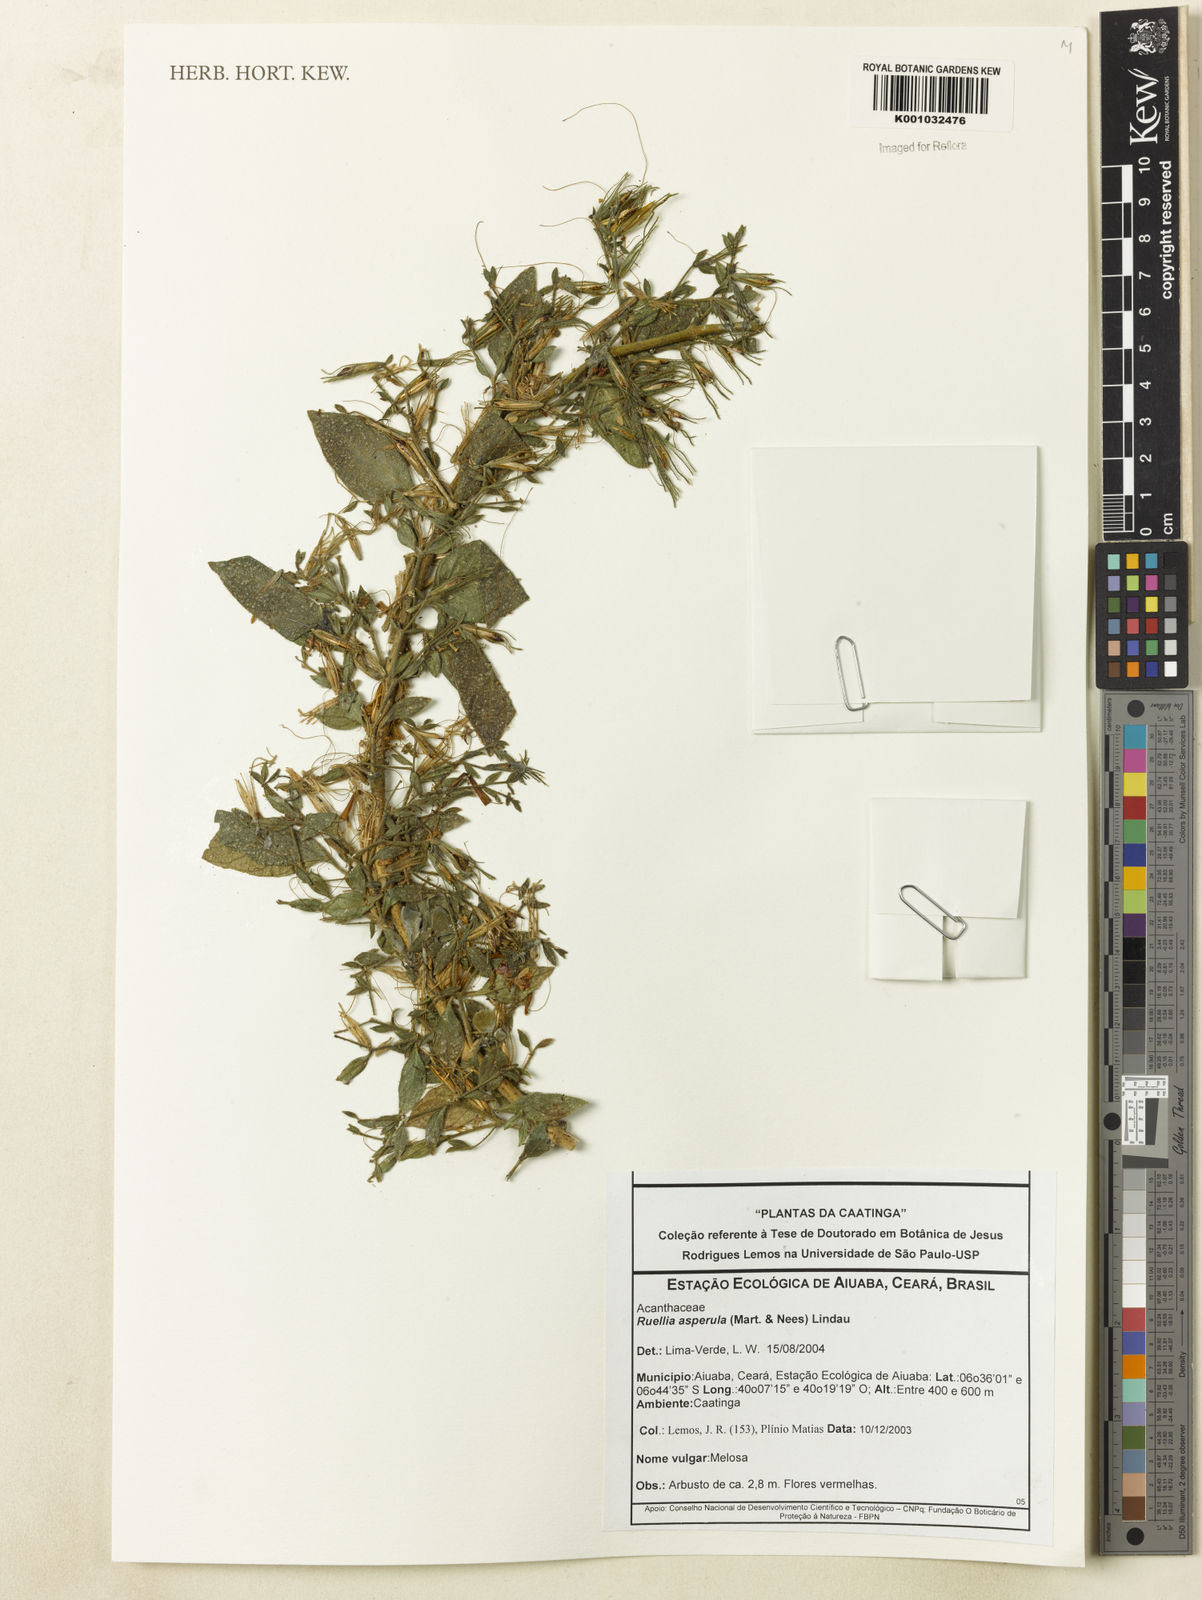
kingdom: Plantae
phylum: Tracheophyta
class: Magnoliopsida
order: Lamiales
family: Acanthaceae
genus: Ruellia
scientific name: Ruellia asperula
